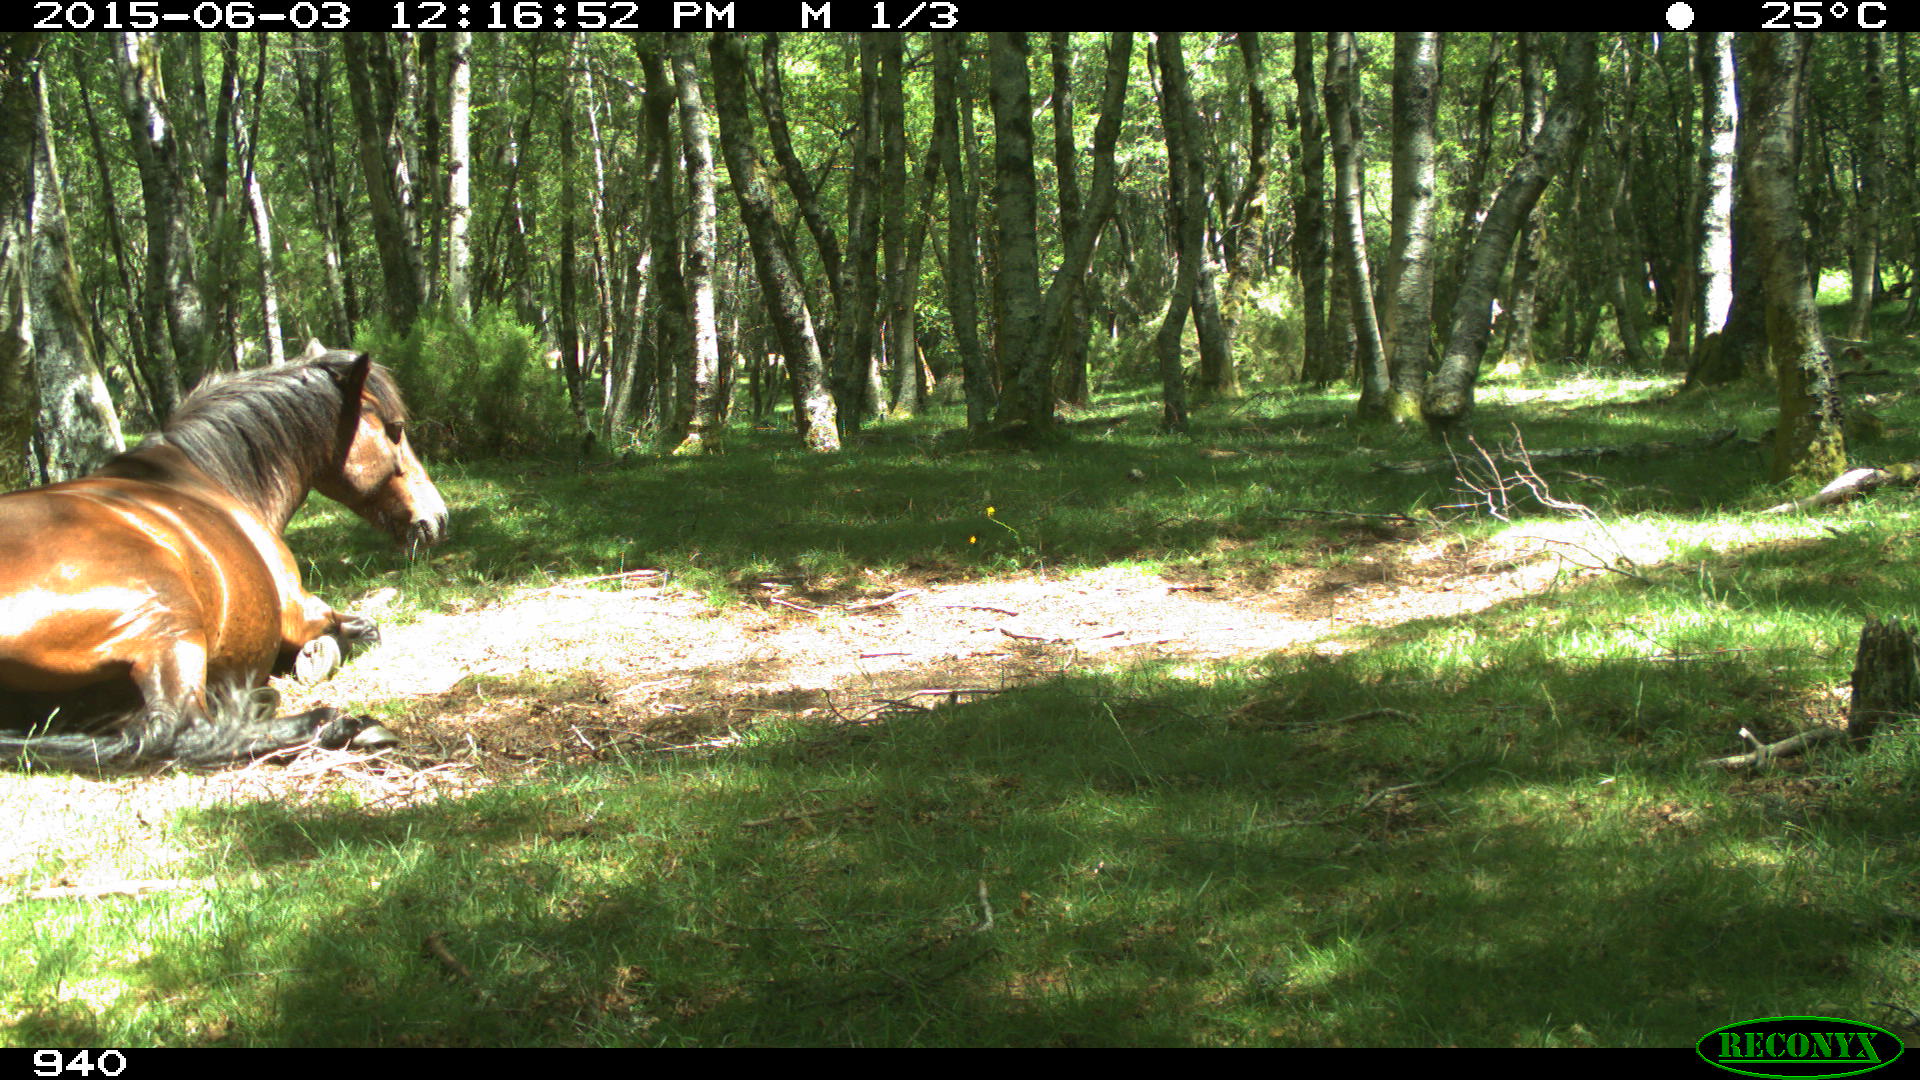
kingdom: Animalia
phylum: Chordata
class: Mammalia
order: Perissodactyla
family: Equidae
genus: Equus
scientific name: Equus caballus
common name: Horse
